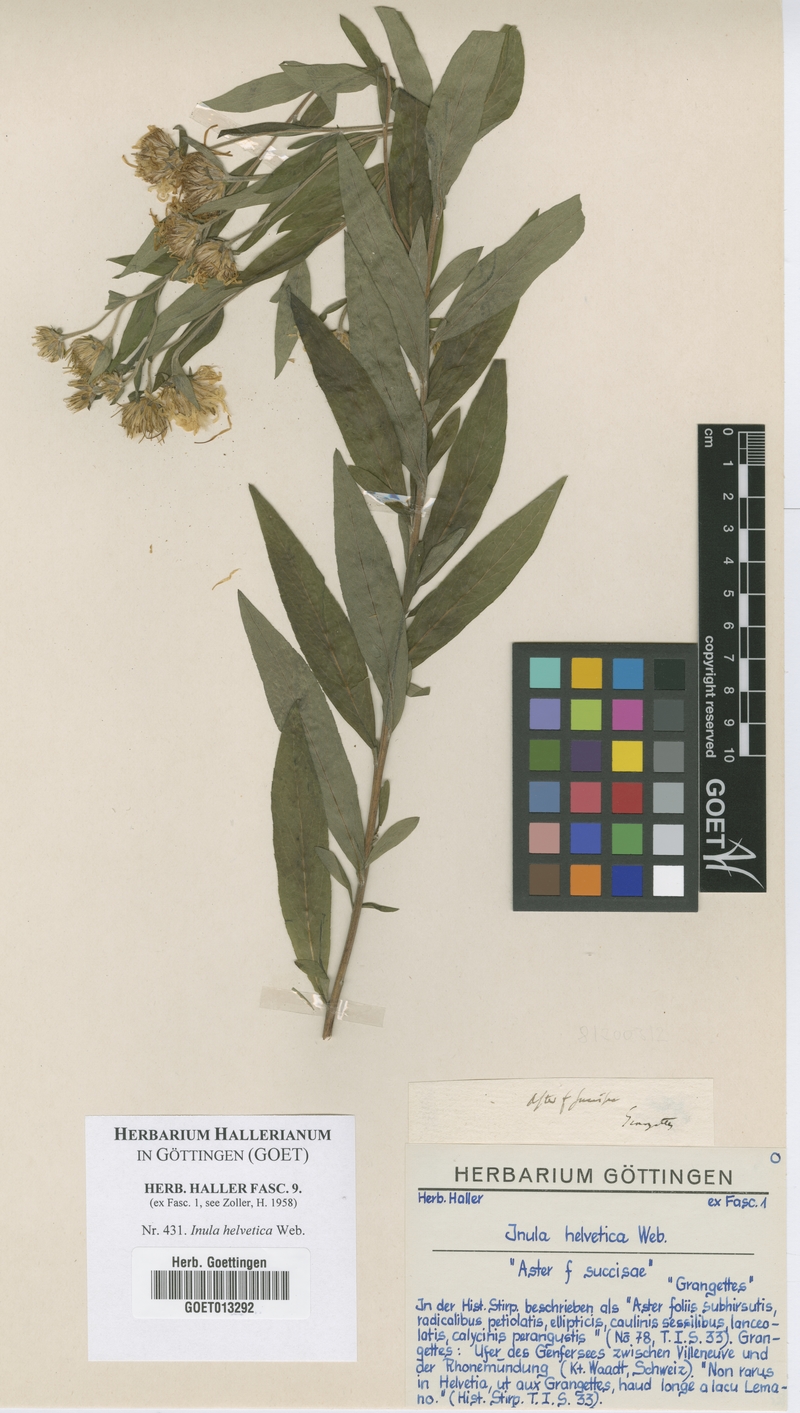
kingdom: Plantae
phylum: Tracheophyta
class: Magnoliopsida
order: Asterales
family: Asteraceae
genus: Pentanema
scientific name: Pentanema helveticum
